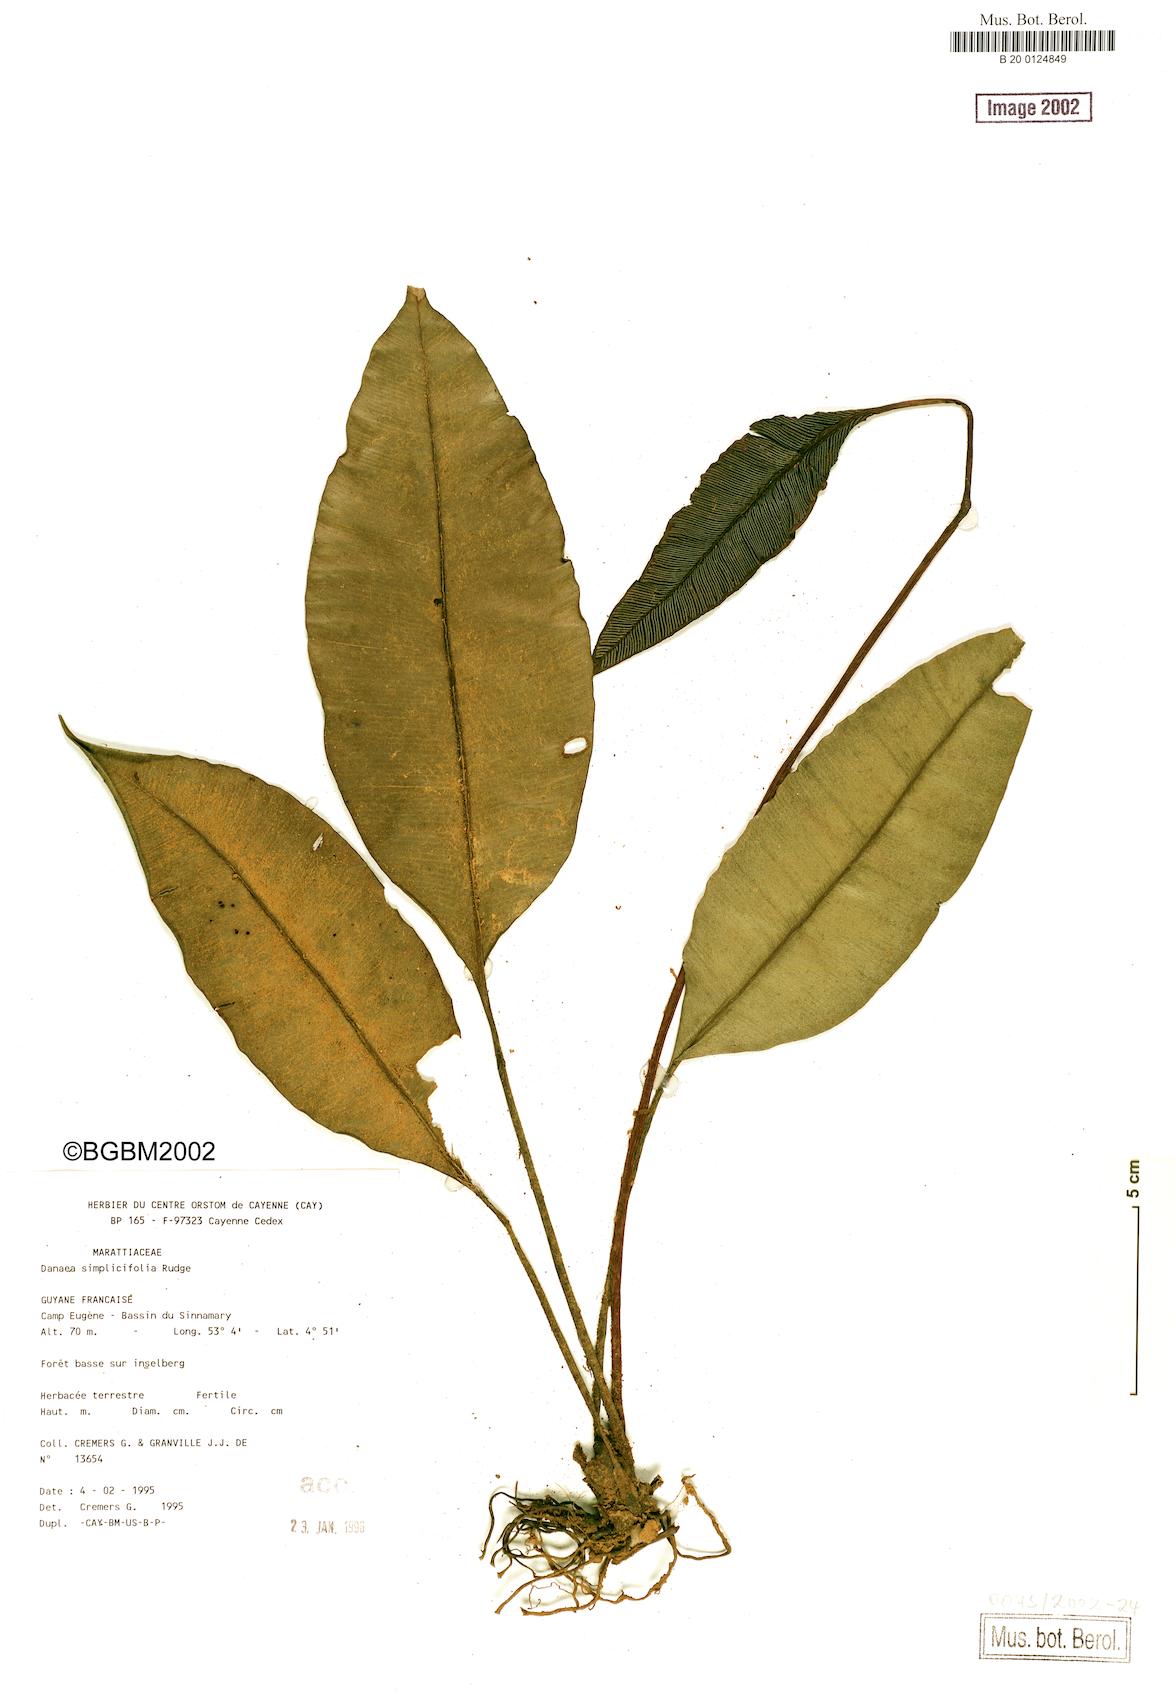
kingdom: Plantae
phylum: Tracheophyta
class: Polypodiopsida
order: Marattiales
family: Marattiaceae
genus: Danaea
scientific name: Danaea simplicifolia
